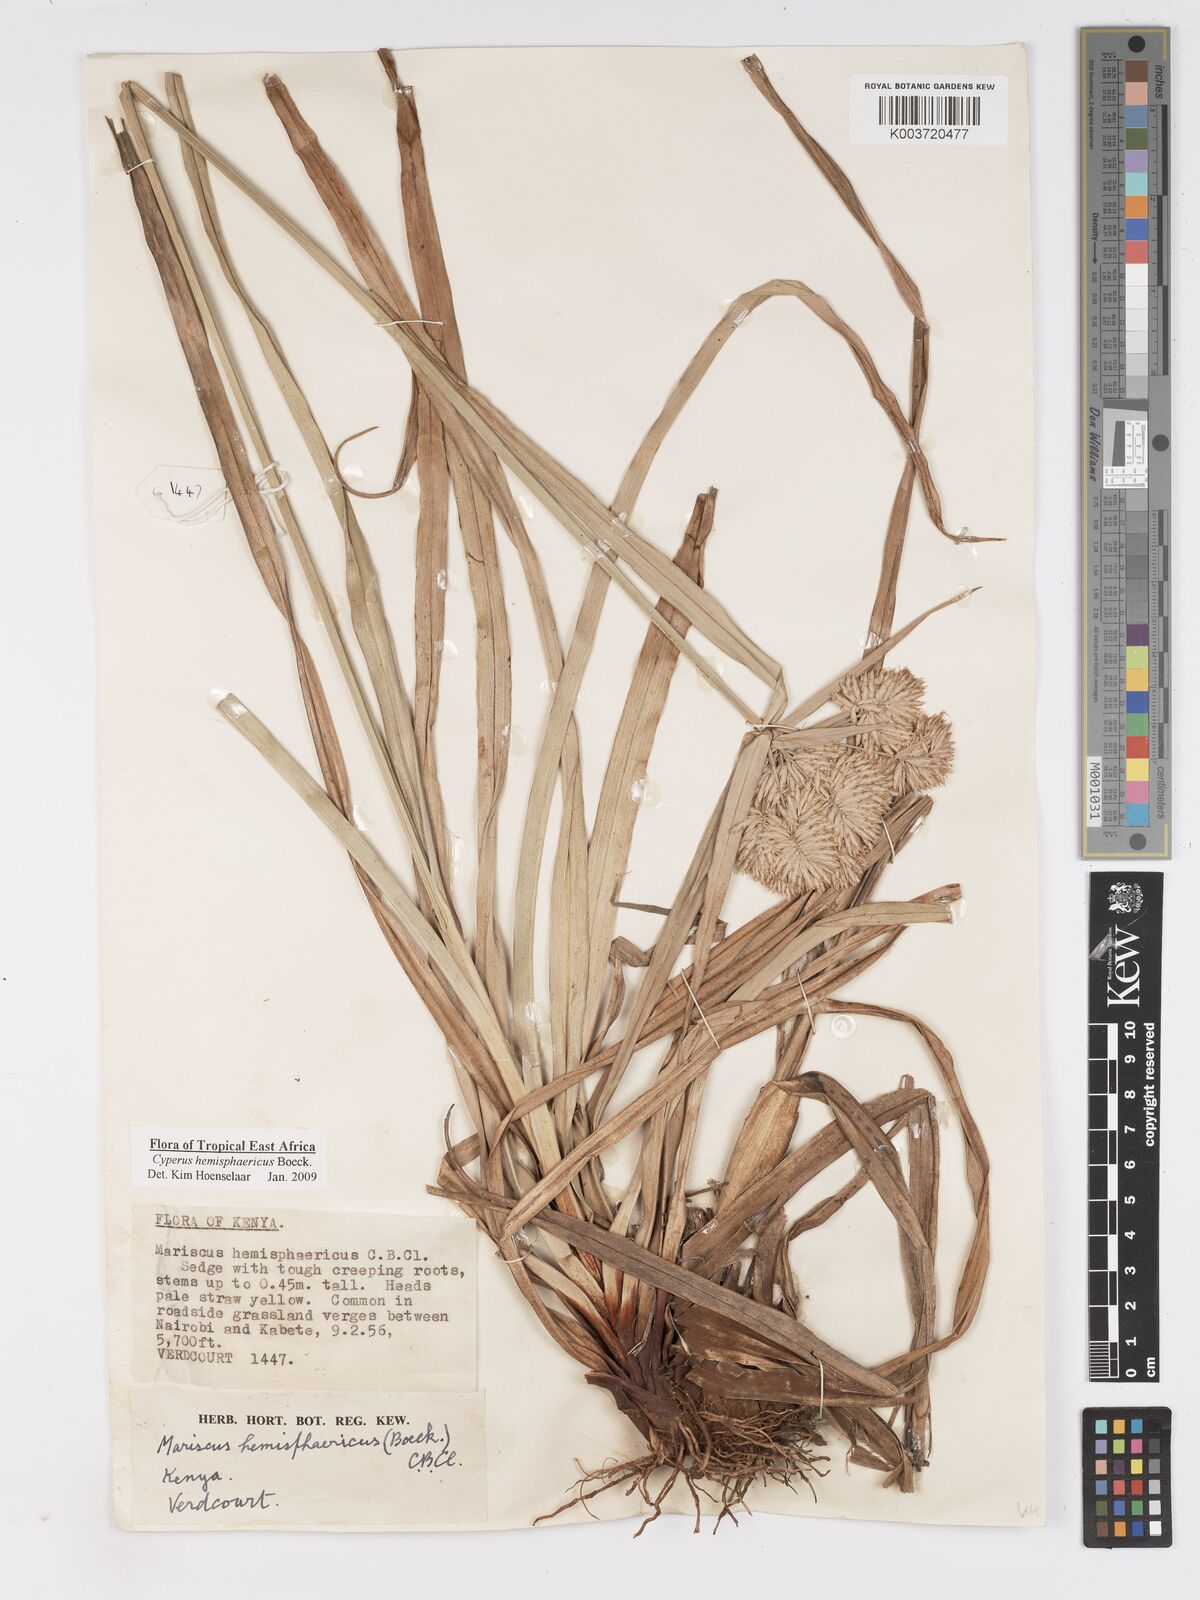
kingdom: Plantae
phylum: Tracheophyta
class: Liliopsida
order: Poales
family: Cyperaceae
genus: Cyperus
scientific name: Cyperus hemisphaericus
